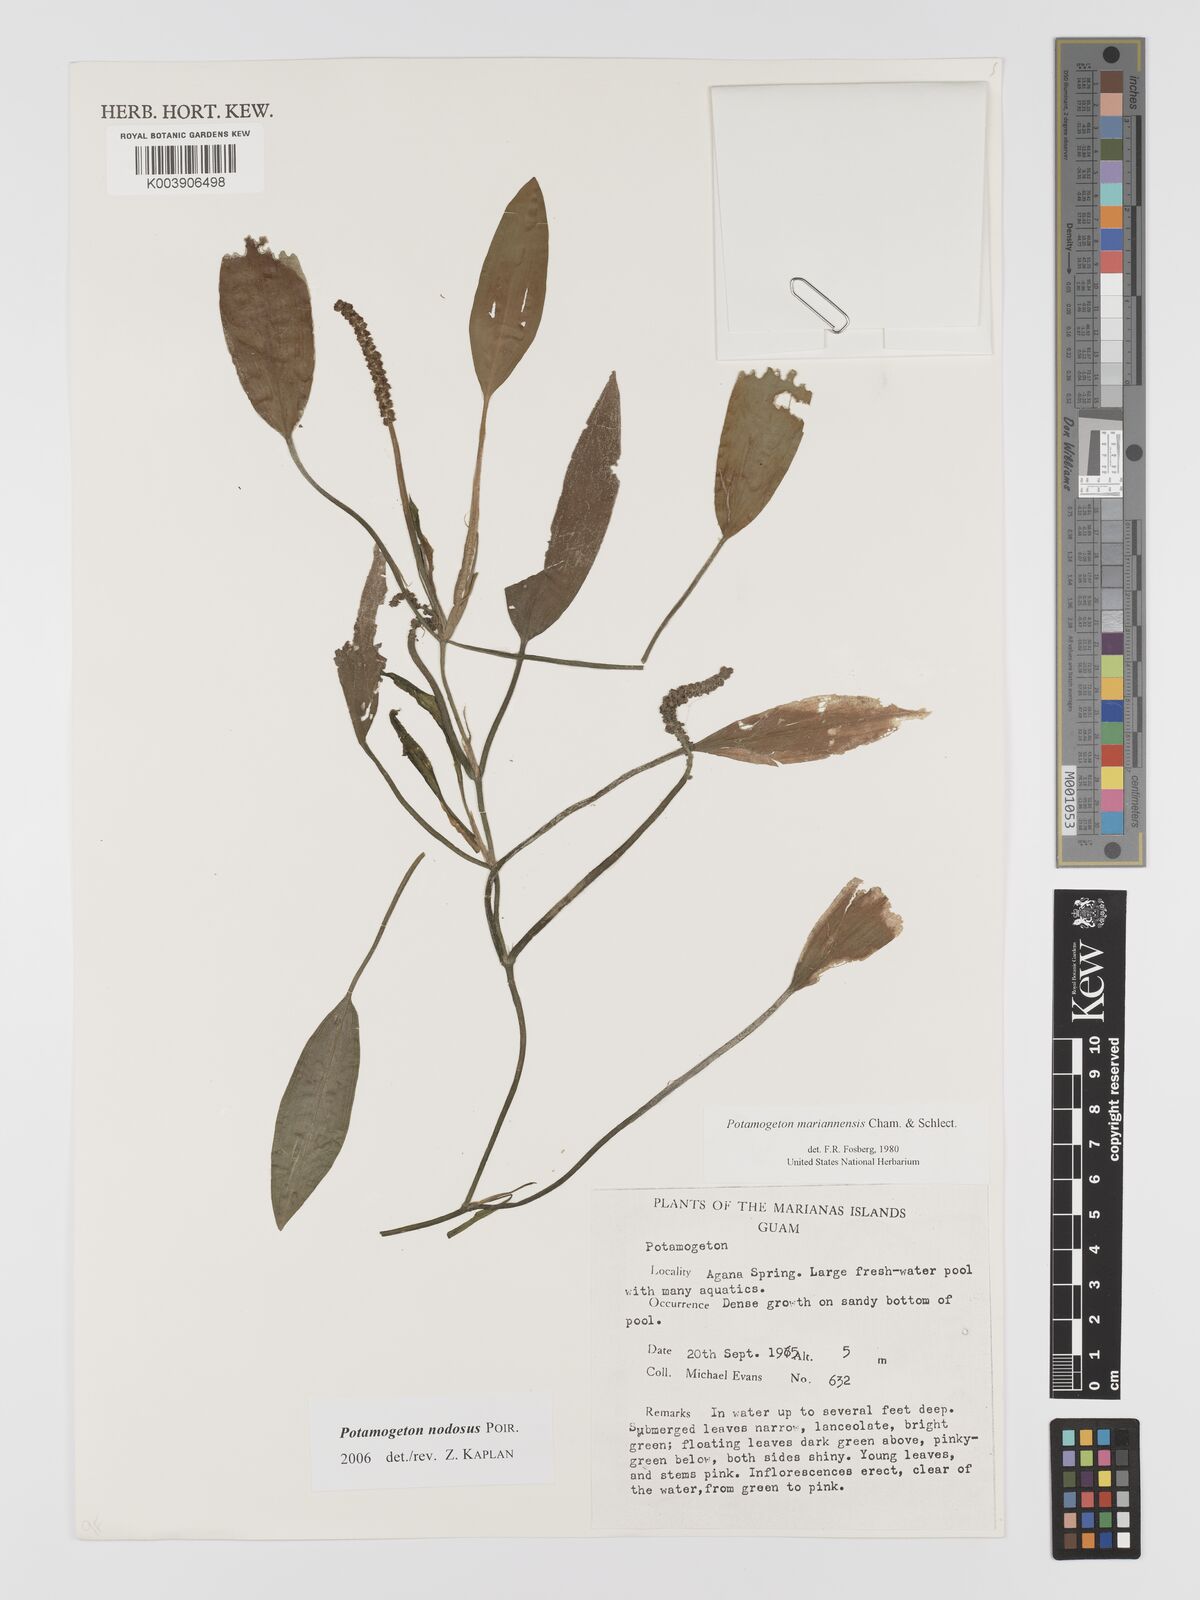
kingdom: Plantae
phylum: Tracheophyta
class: Liliopsida
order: Alismatales
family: Potamogetonaceae
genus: Potamogeton
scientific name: Potamogeton nodosus
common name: Loddon pondweed
